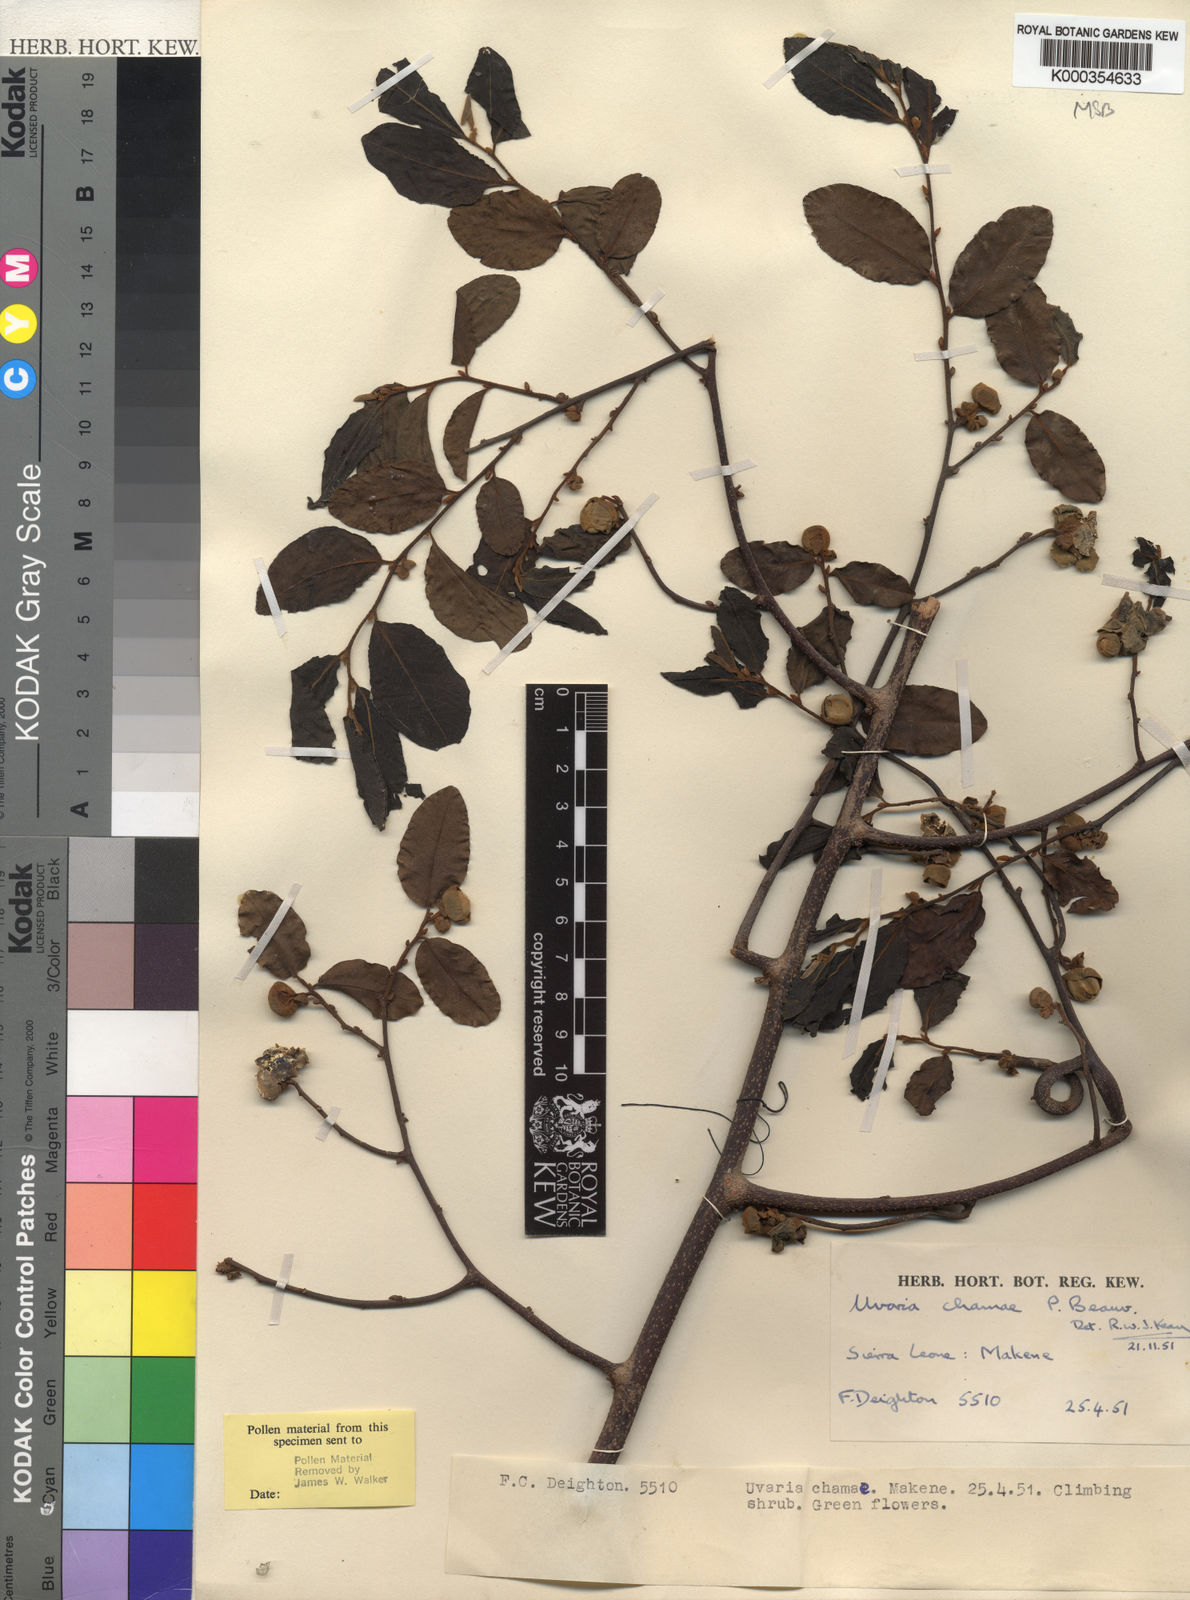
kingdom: Plantae
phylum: Tracheophyta
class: Magnoliopsida
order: Magnoliales
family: Annonaceae
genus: Uvaria
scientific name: Uvaria chamae
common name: Finger-root
